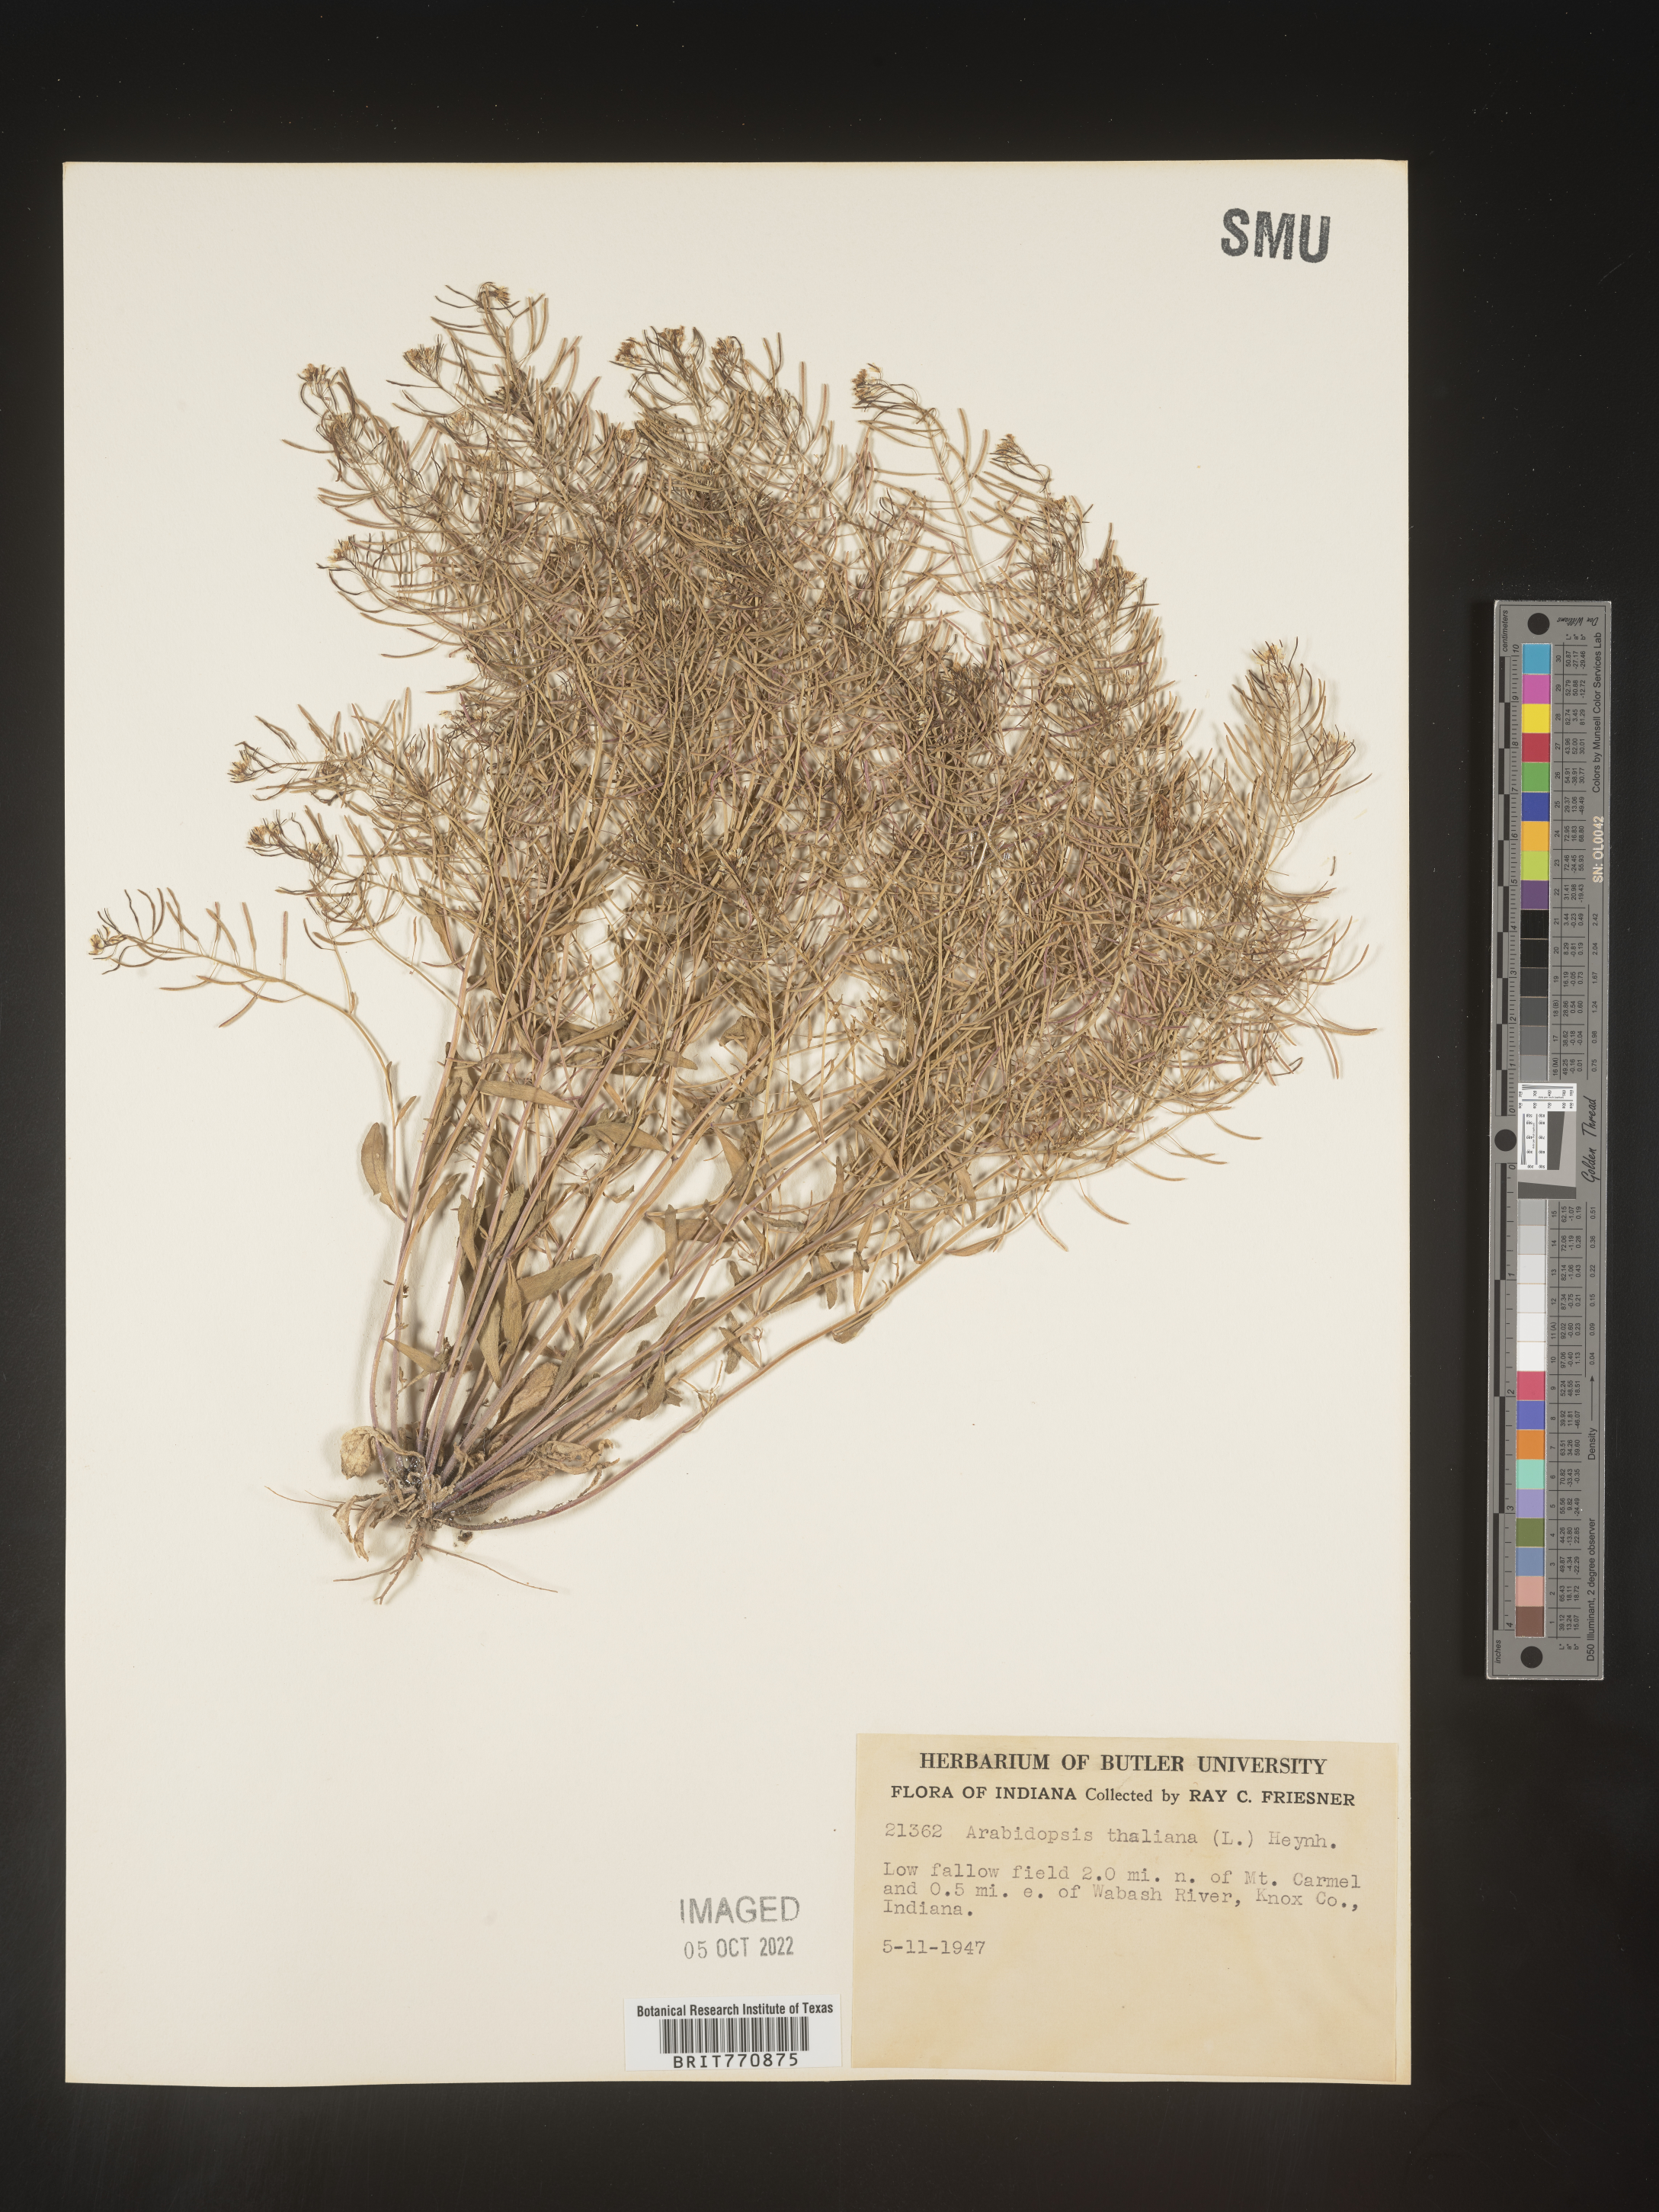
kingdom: Plantae
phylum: Tracheophyta
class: Magnoliopsida
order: Brassicales
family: Brassicaceae
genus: Arabidopsis
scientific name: Arabidopsis thaliana
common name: Thale cress
